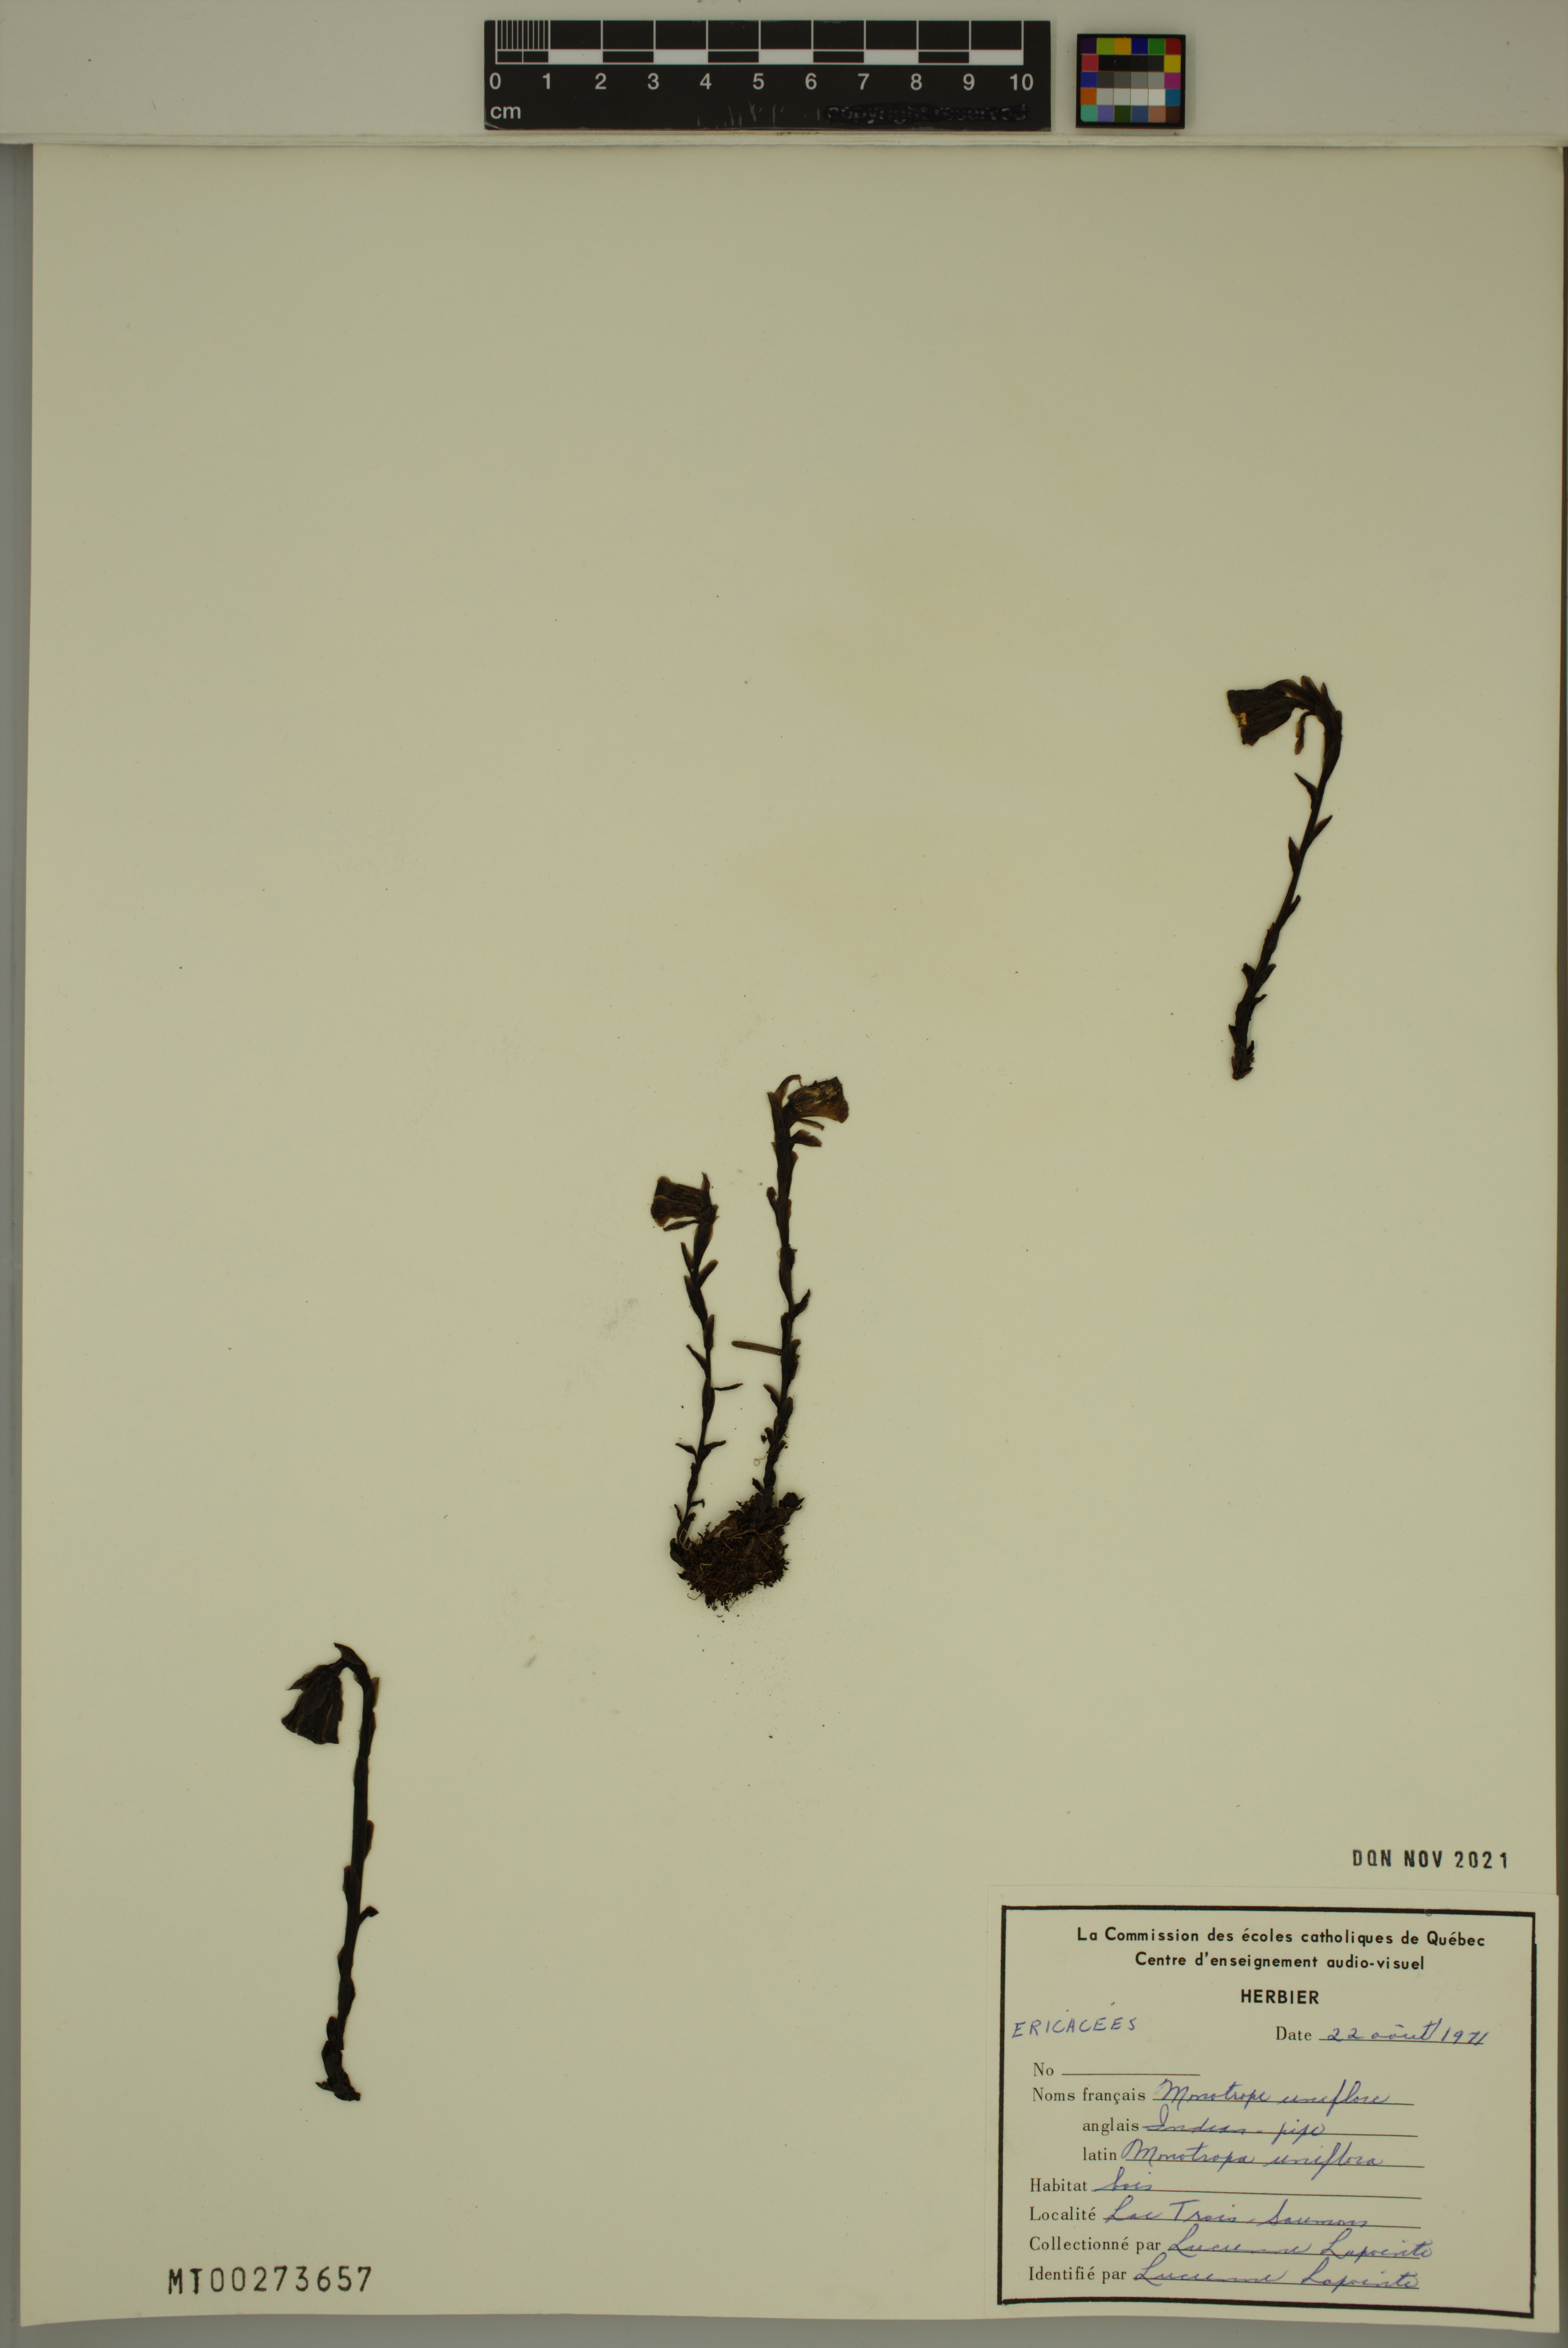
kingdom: Plantae
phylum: Tracheophyta
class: Magnoliopsida
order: Ericales
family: Ericaceae
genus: Monotropa
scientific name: Monotropa uniflora
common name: Convulsion root
